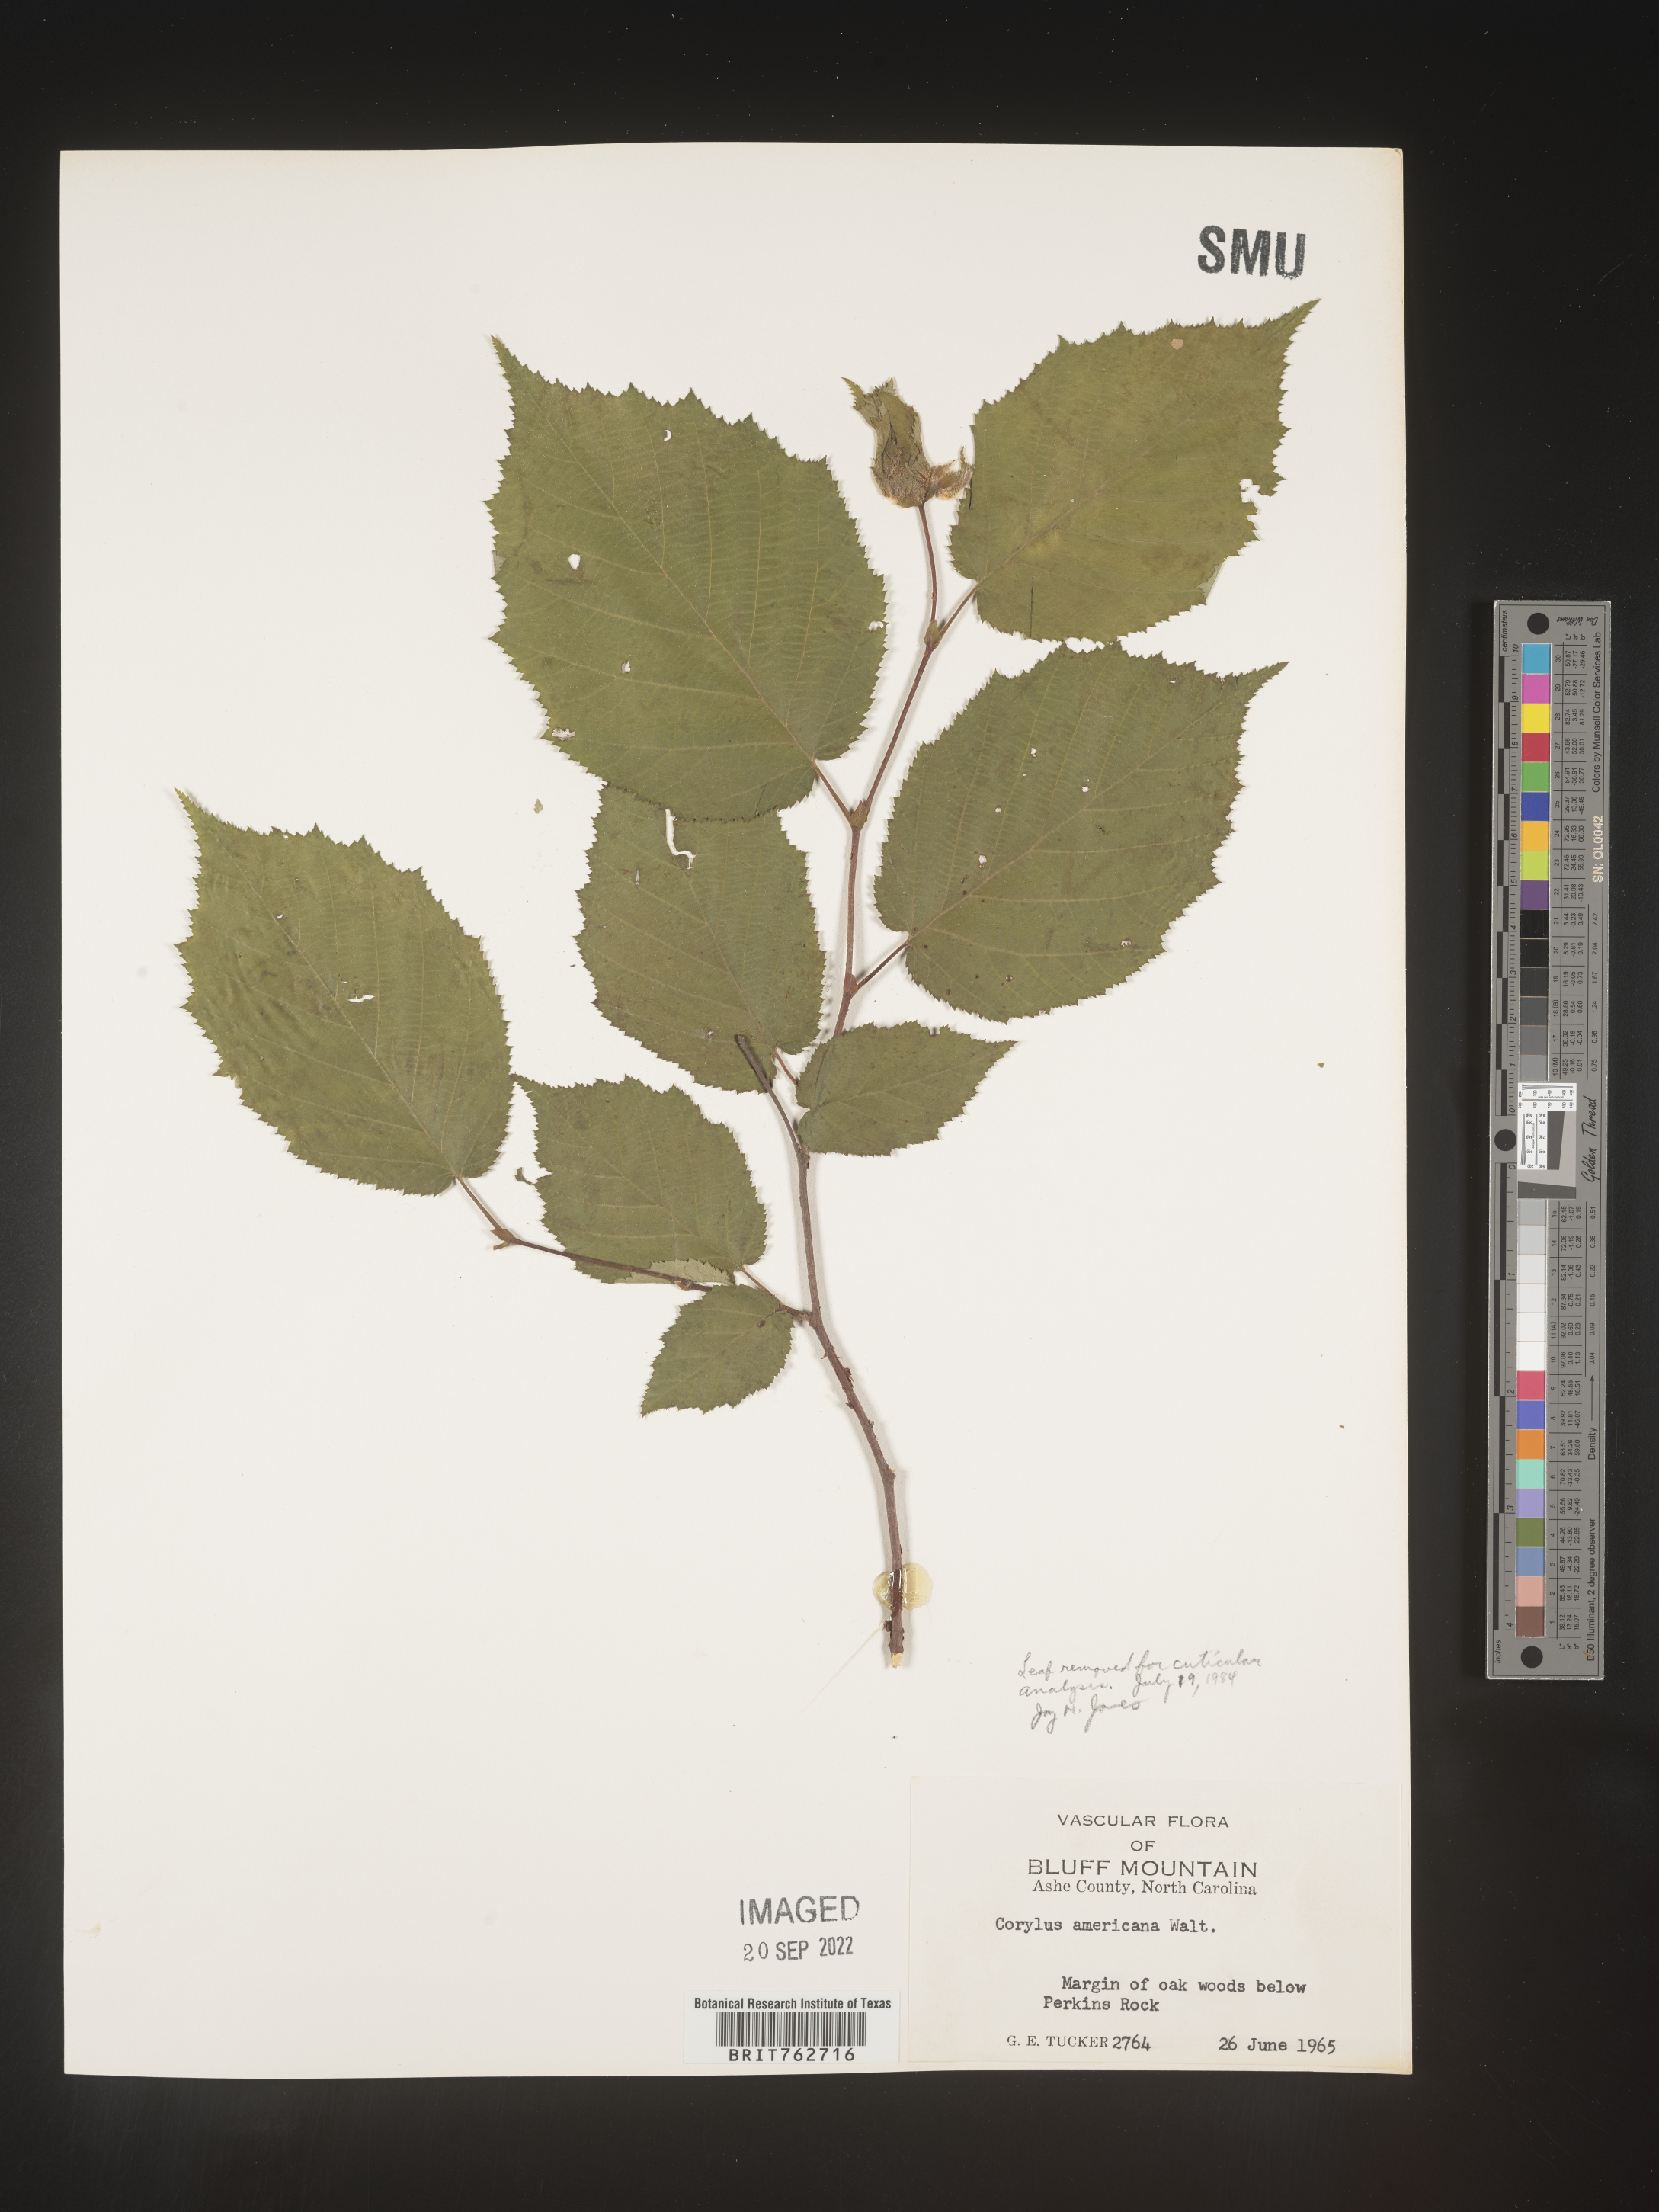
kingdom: Plantae
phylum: Tracheophyta
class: Magnoliopsida
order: Fagales
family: Betulaceae
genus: Corylus
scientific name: Corylus americana
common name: American hazel
